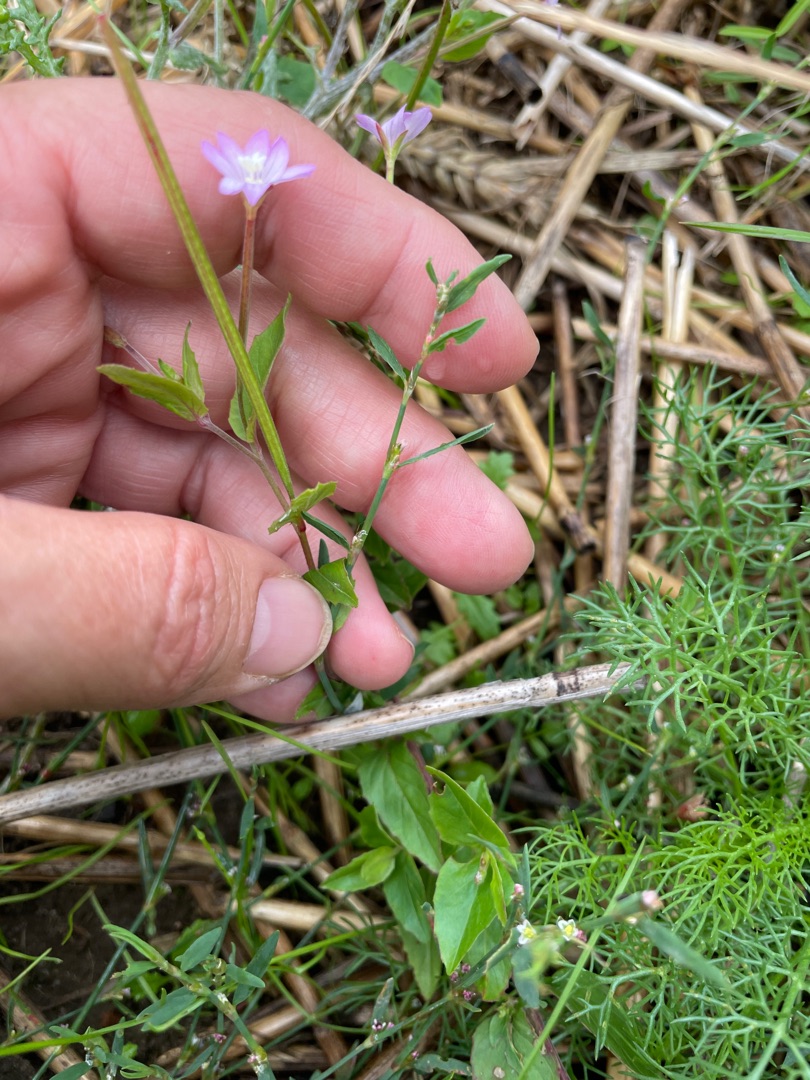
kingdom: Plantae
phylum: Tracheophyta
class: Magnoliopsida
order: Myrtales
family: Onagraceae
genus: Epilobium
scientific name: Epilobium montanum
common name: Glat dueurt
